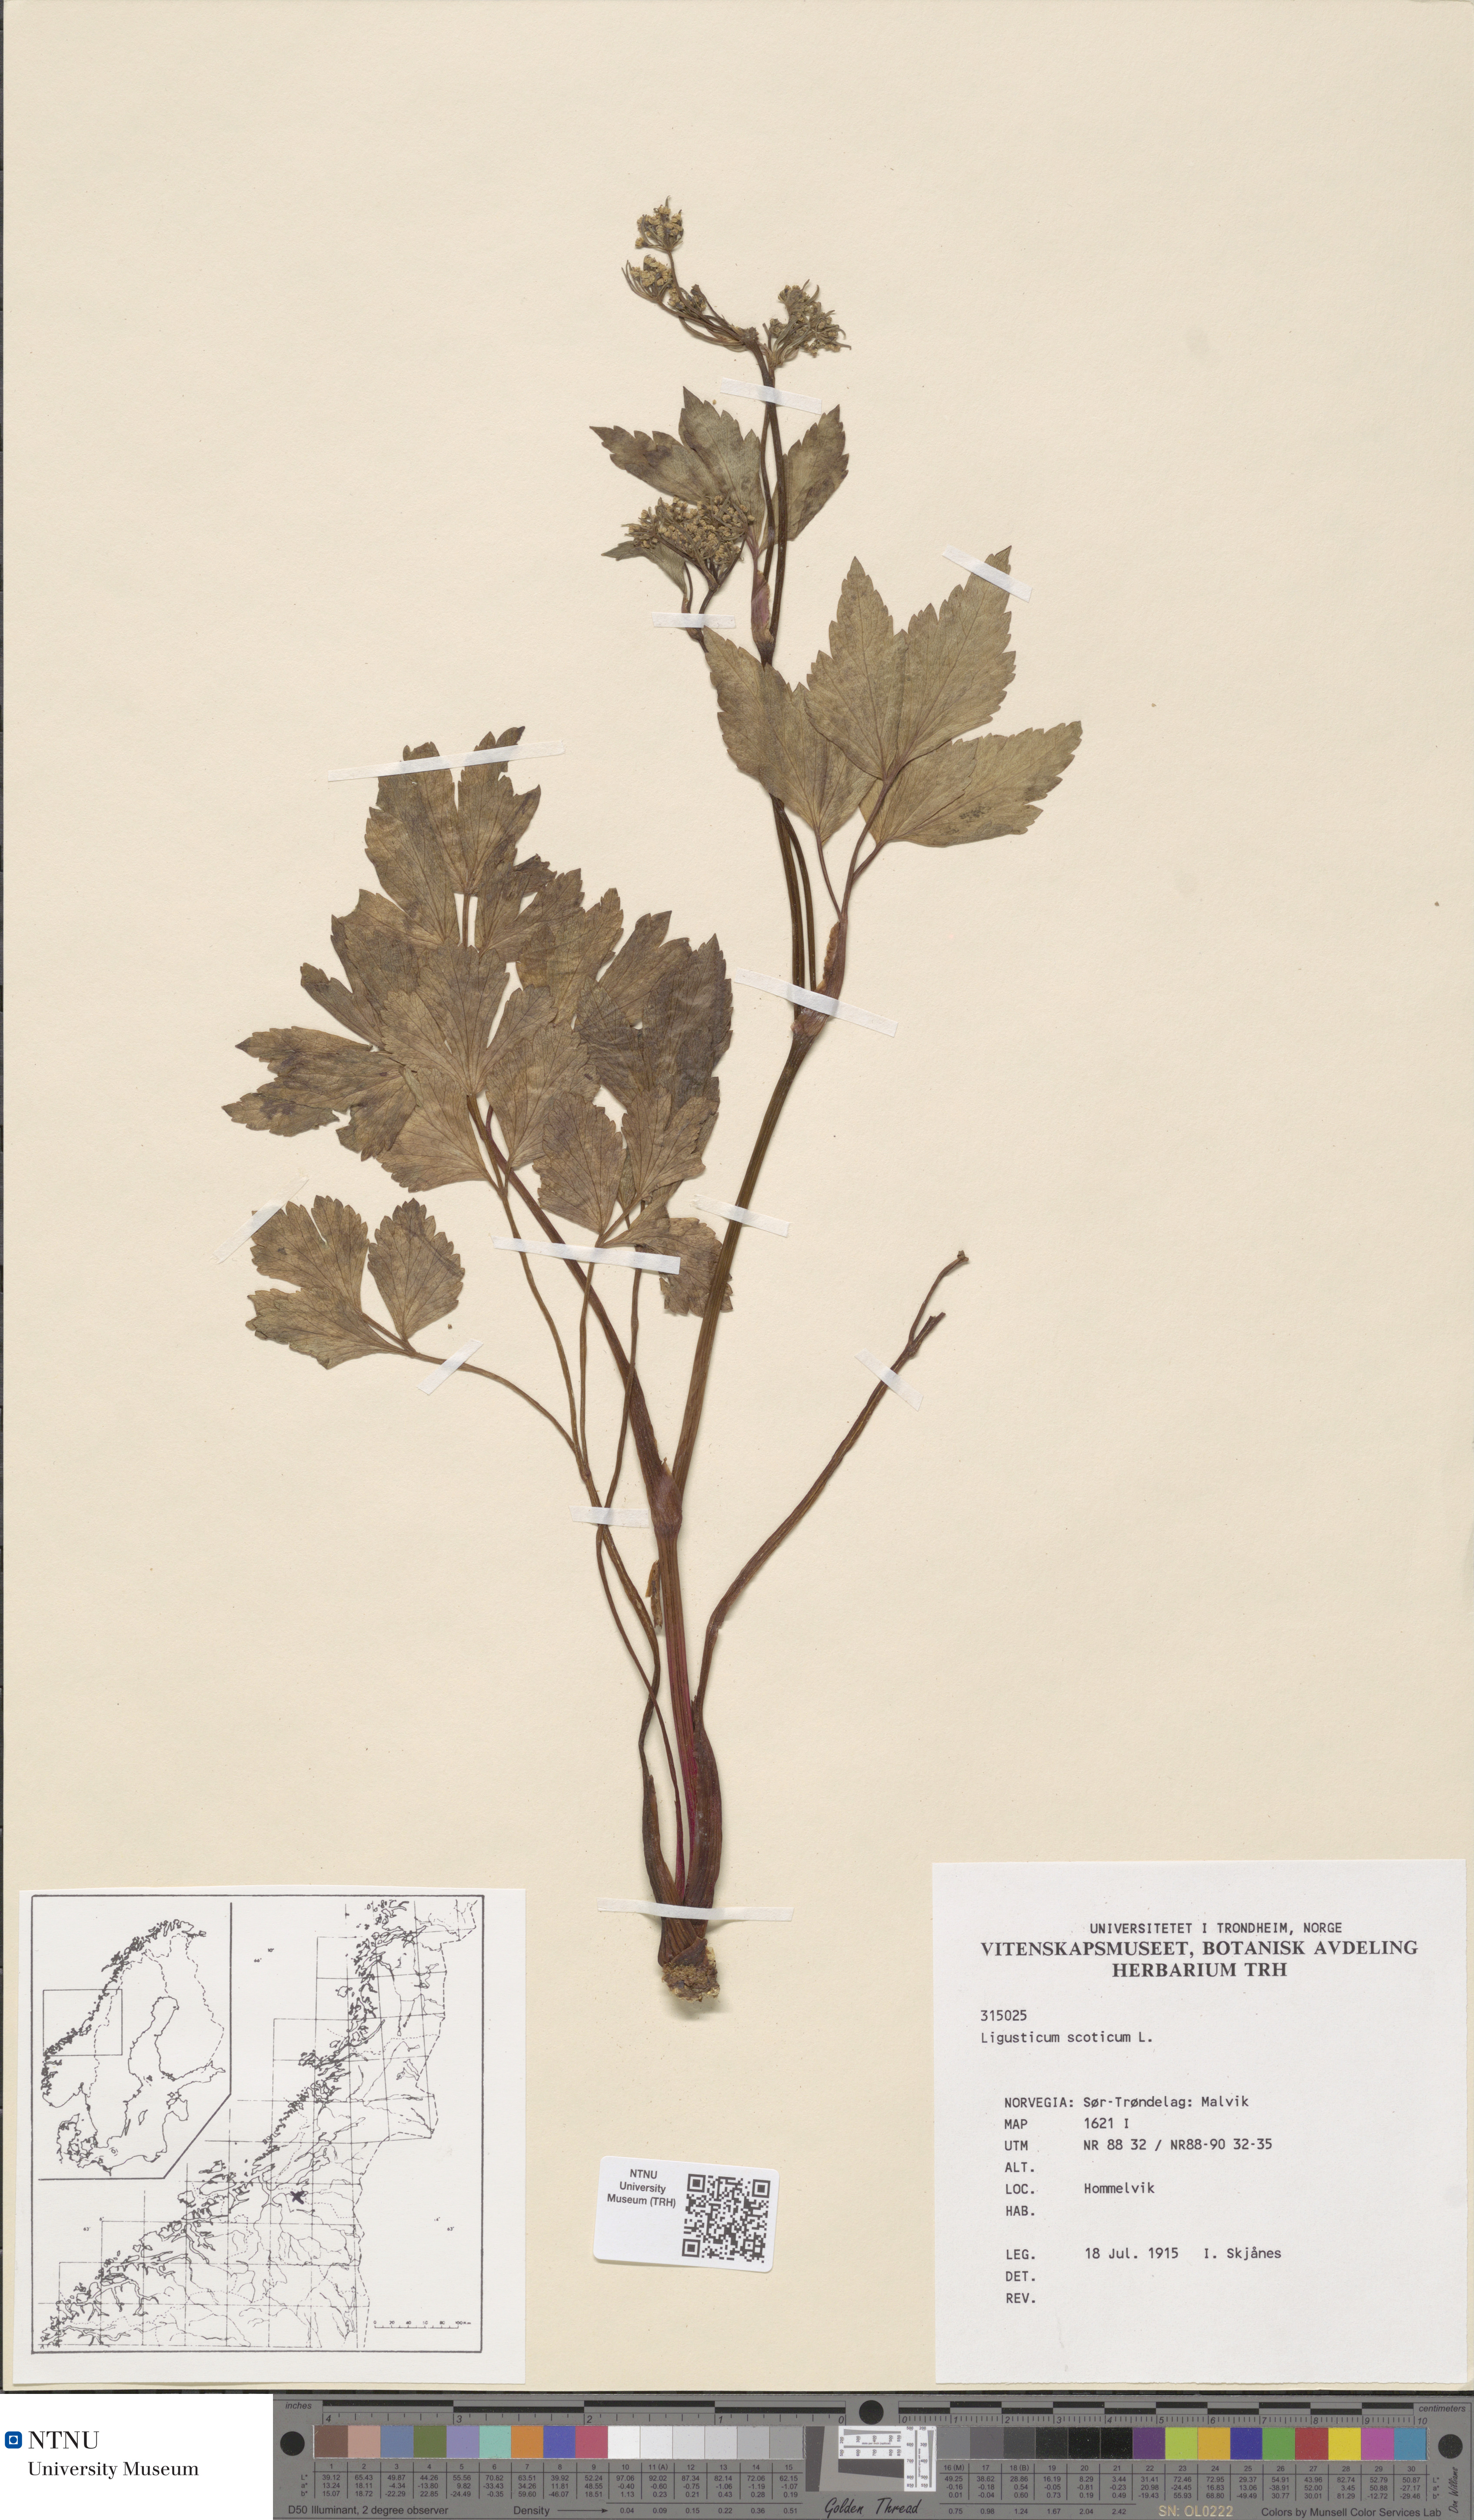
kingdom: Plantae
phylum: Tracheophyta
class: Magnoliopsida
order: Apiales
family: Apiaceae
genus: Ligusticum
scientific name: Ligusticum scothicum
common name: Beach lovage
